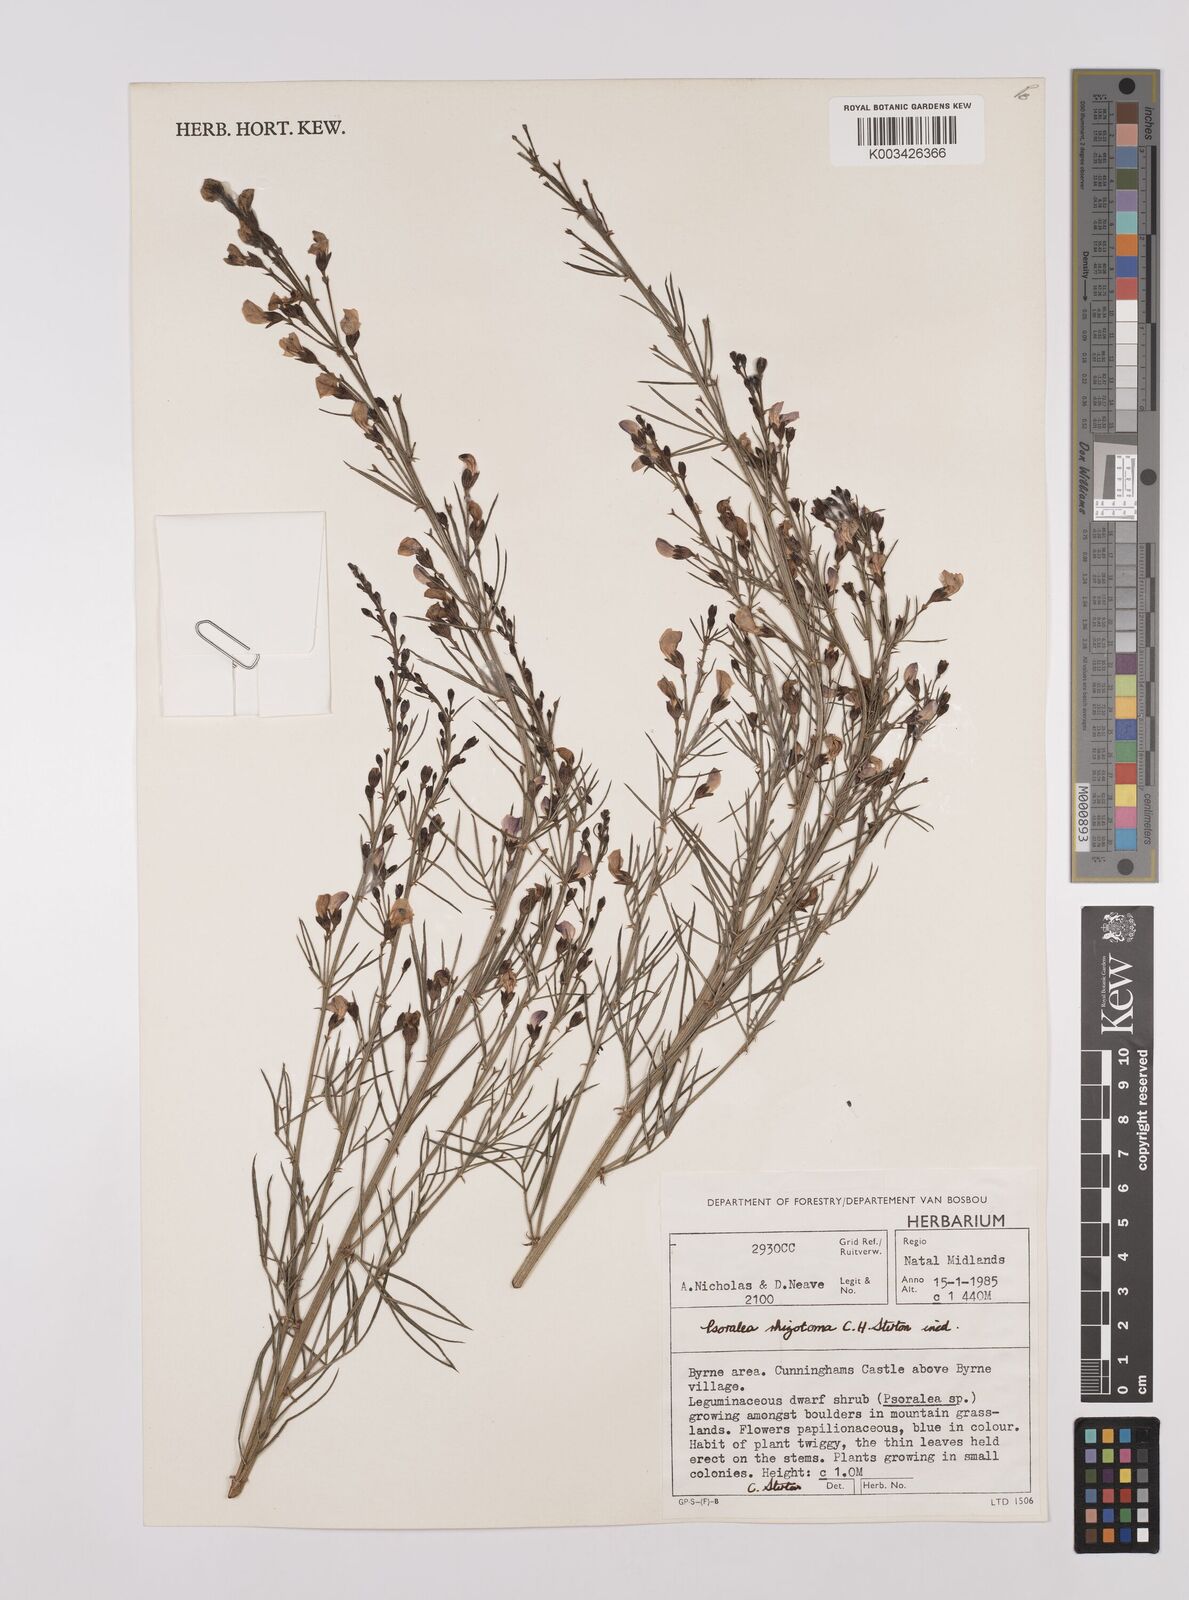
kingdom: Plantae
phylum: Tracheophyta
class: Magnoliopsida
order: Fabales
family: Fabaceae
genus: Psoralea
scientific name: Psoralea rhizotoma
